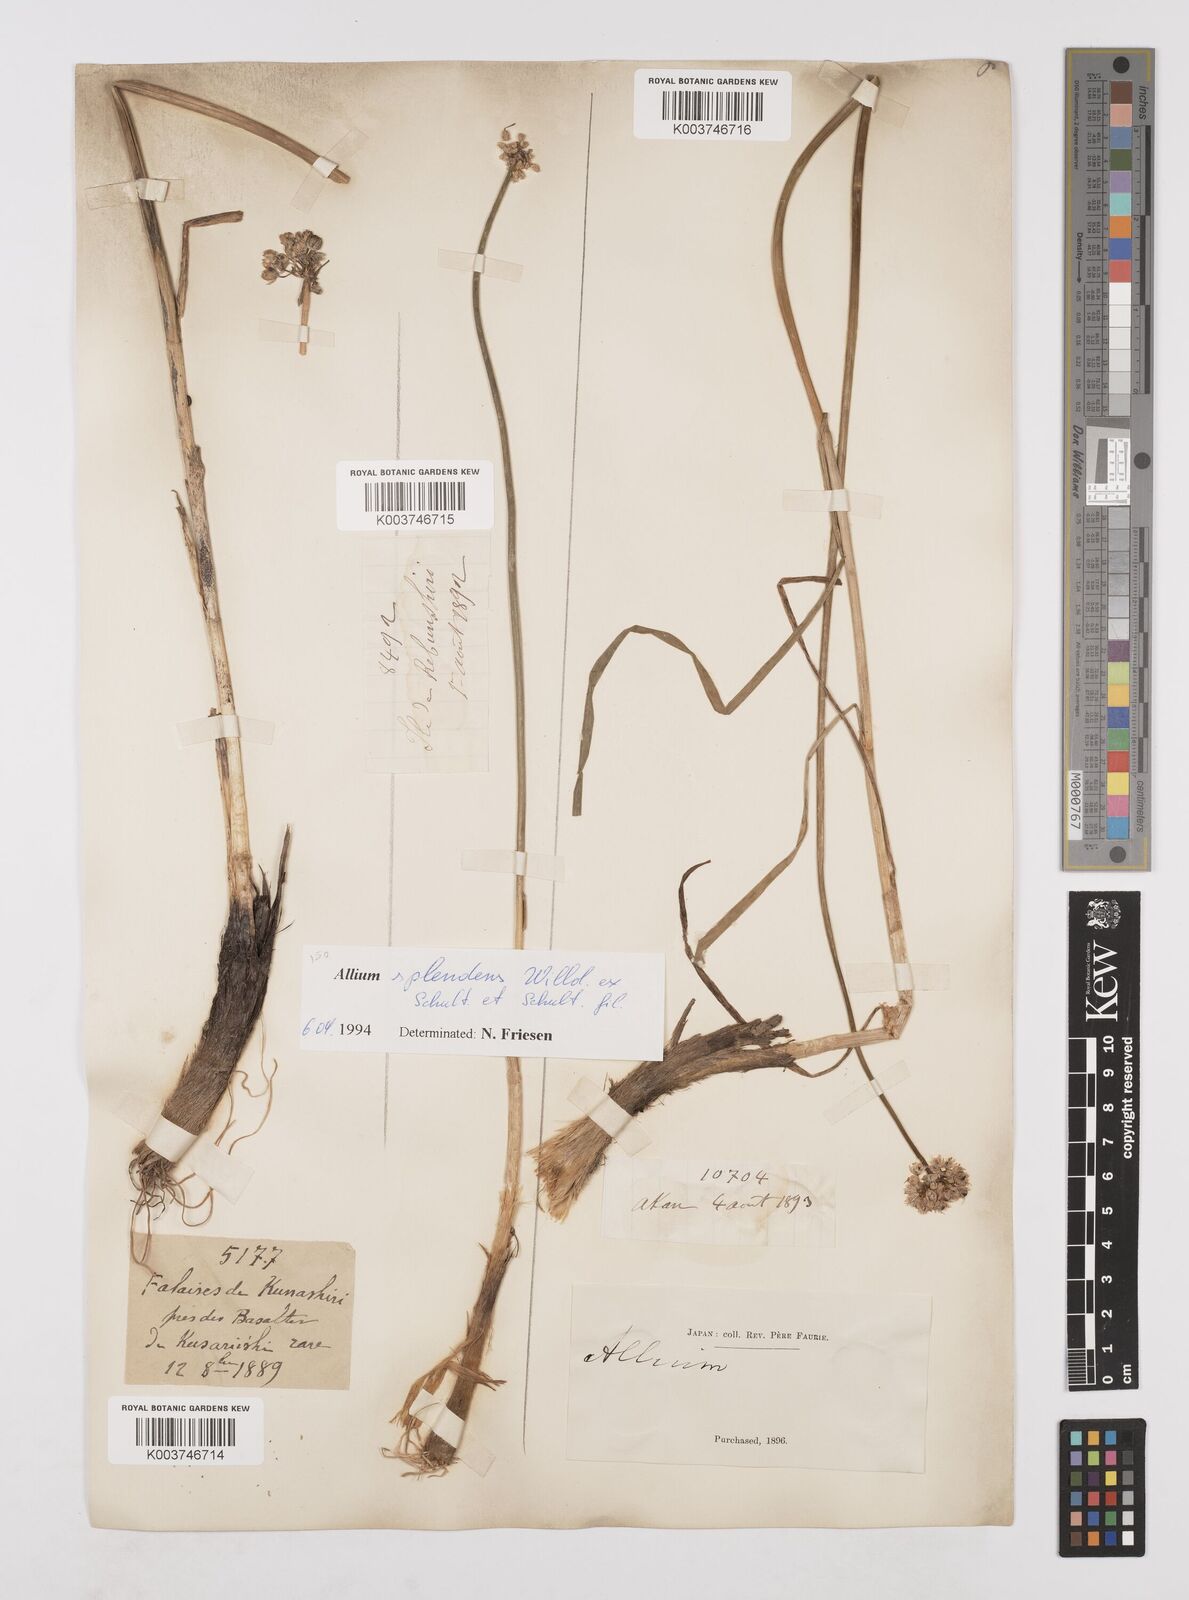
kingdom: Plantae
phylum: Tracheophyta
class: Liliopsida
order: Asparagales
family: Amaryllidaceae
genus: Allium
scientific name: Allium splendens
